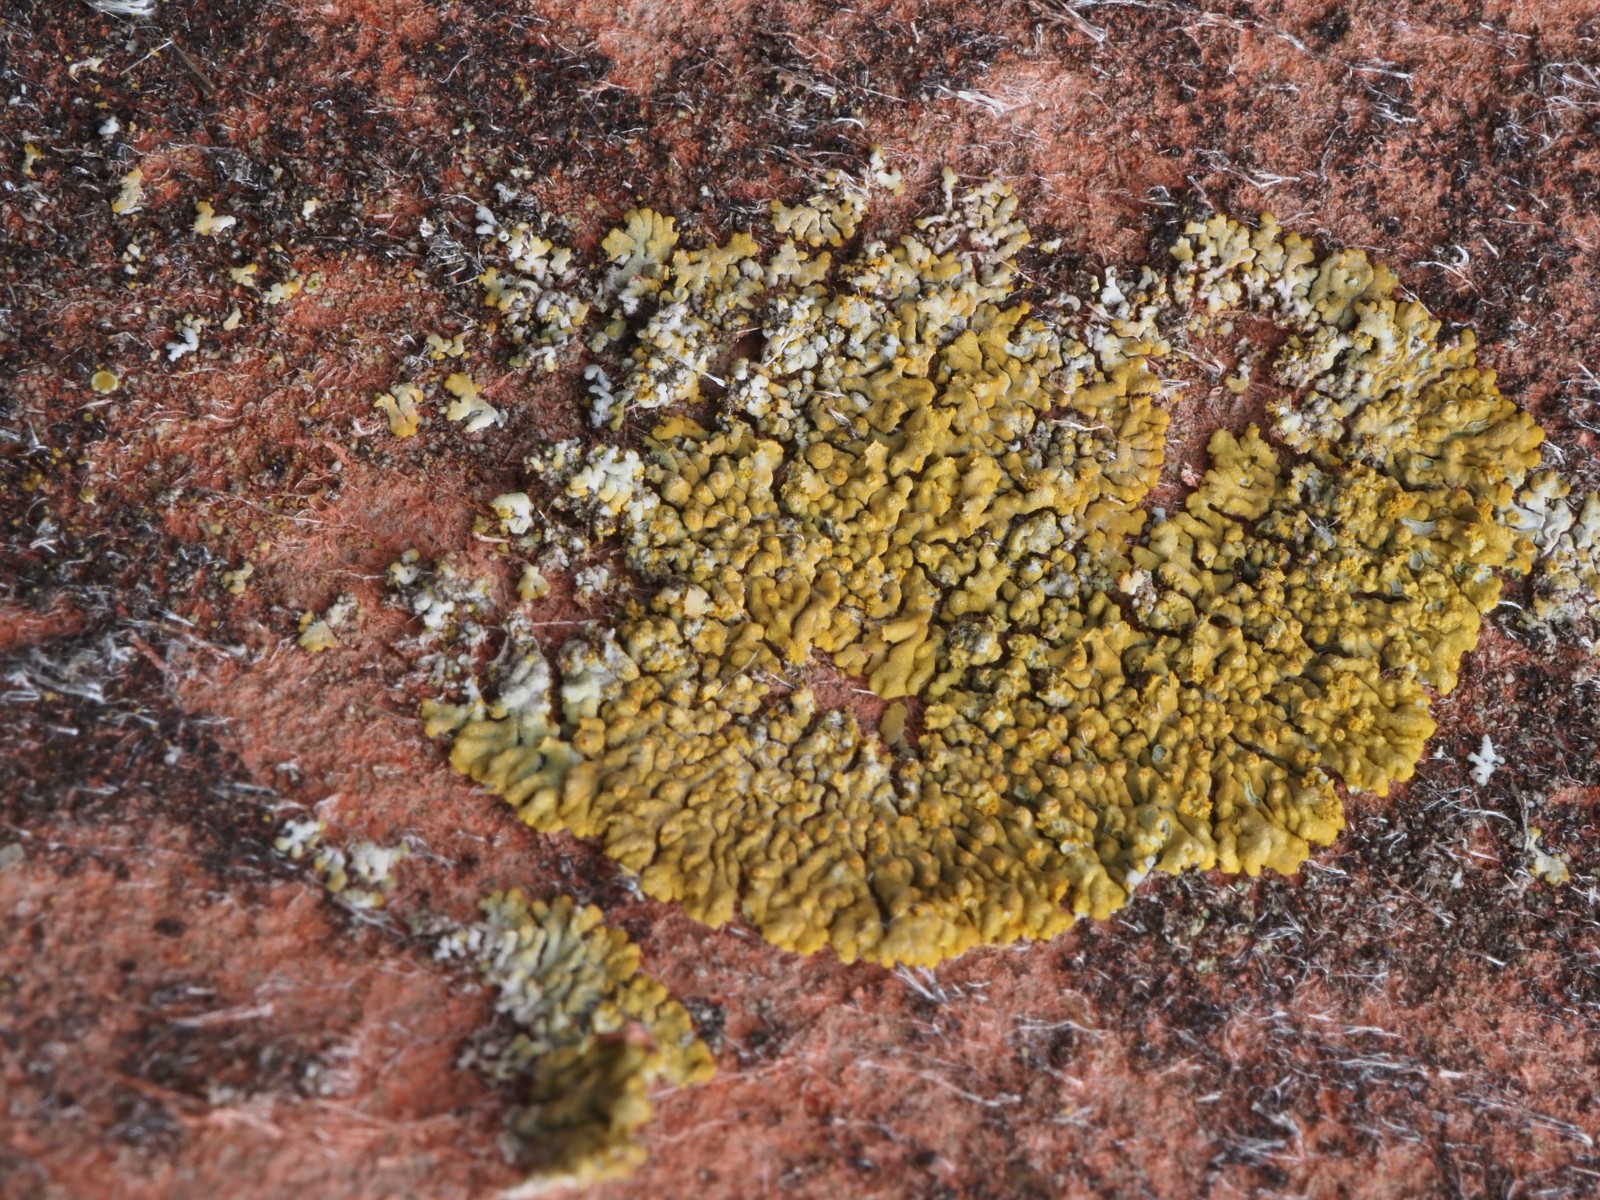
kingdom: Fungi
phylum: Ascomycota
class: Lecanoromycetes
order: Teloschistales
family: Teloschistaceae
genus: Calogaya
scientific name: Calogaya decipiens
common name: knudret orangelav
